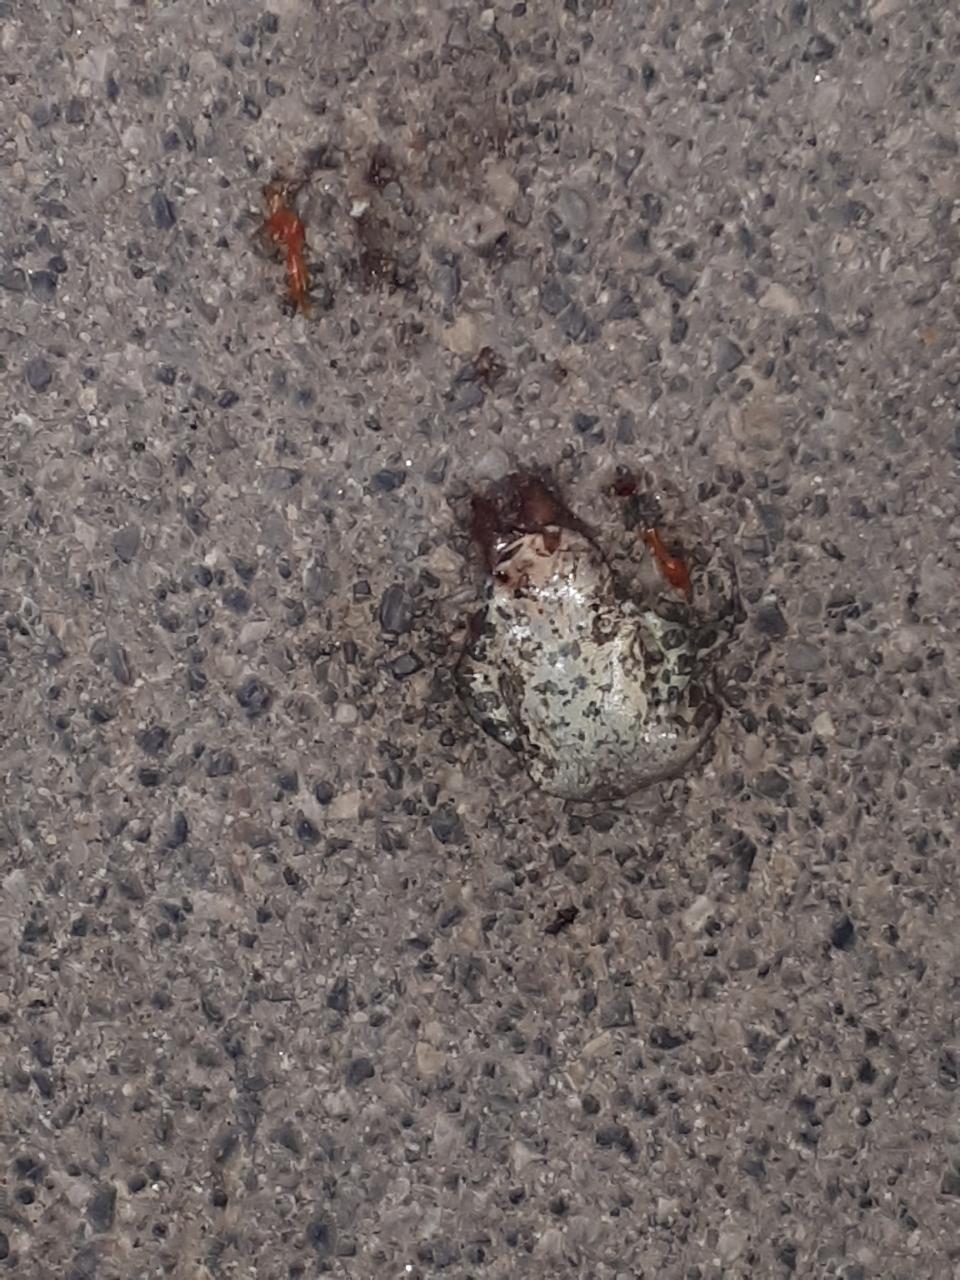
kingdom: Animalia
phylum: Chordata
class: Amphibia
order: Anura
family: Bufonidae
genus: Bufotes
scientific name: Bufotes viridis
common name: European green toad
